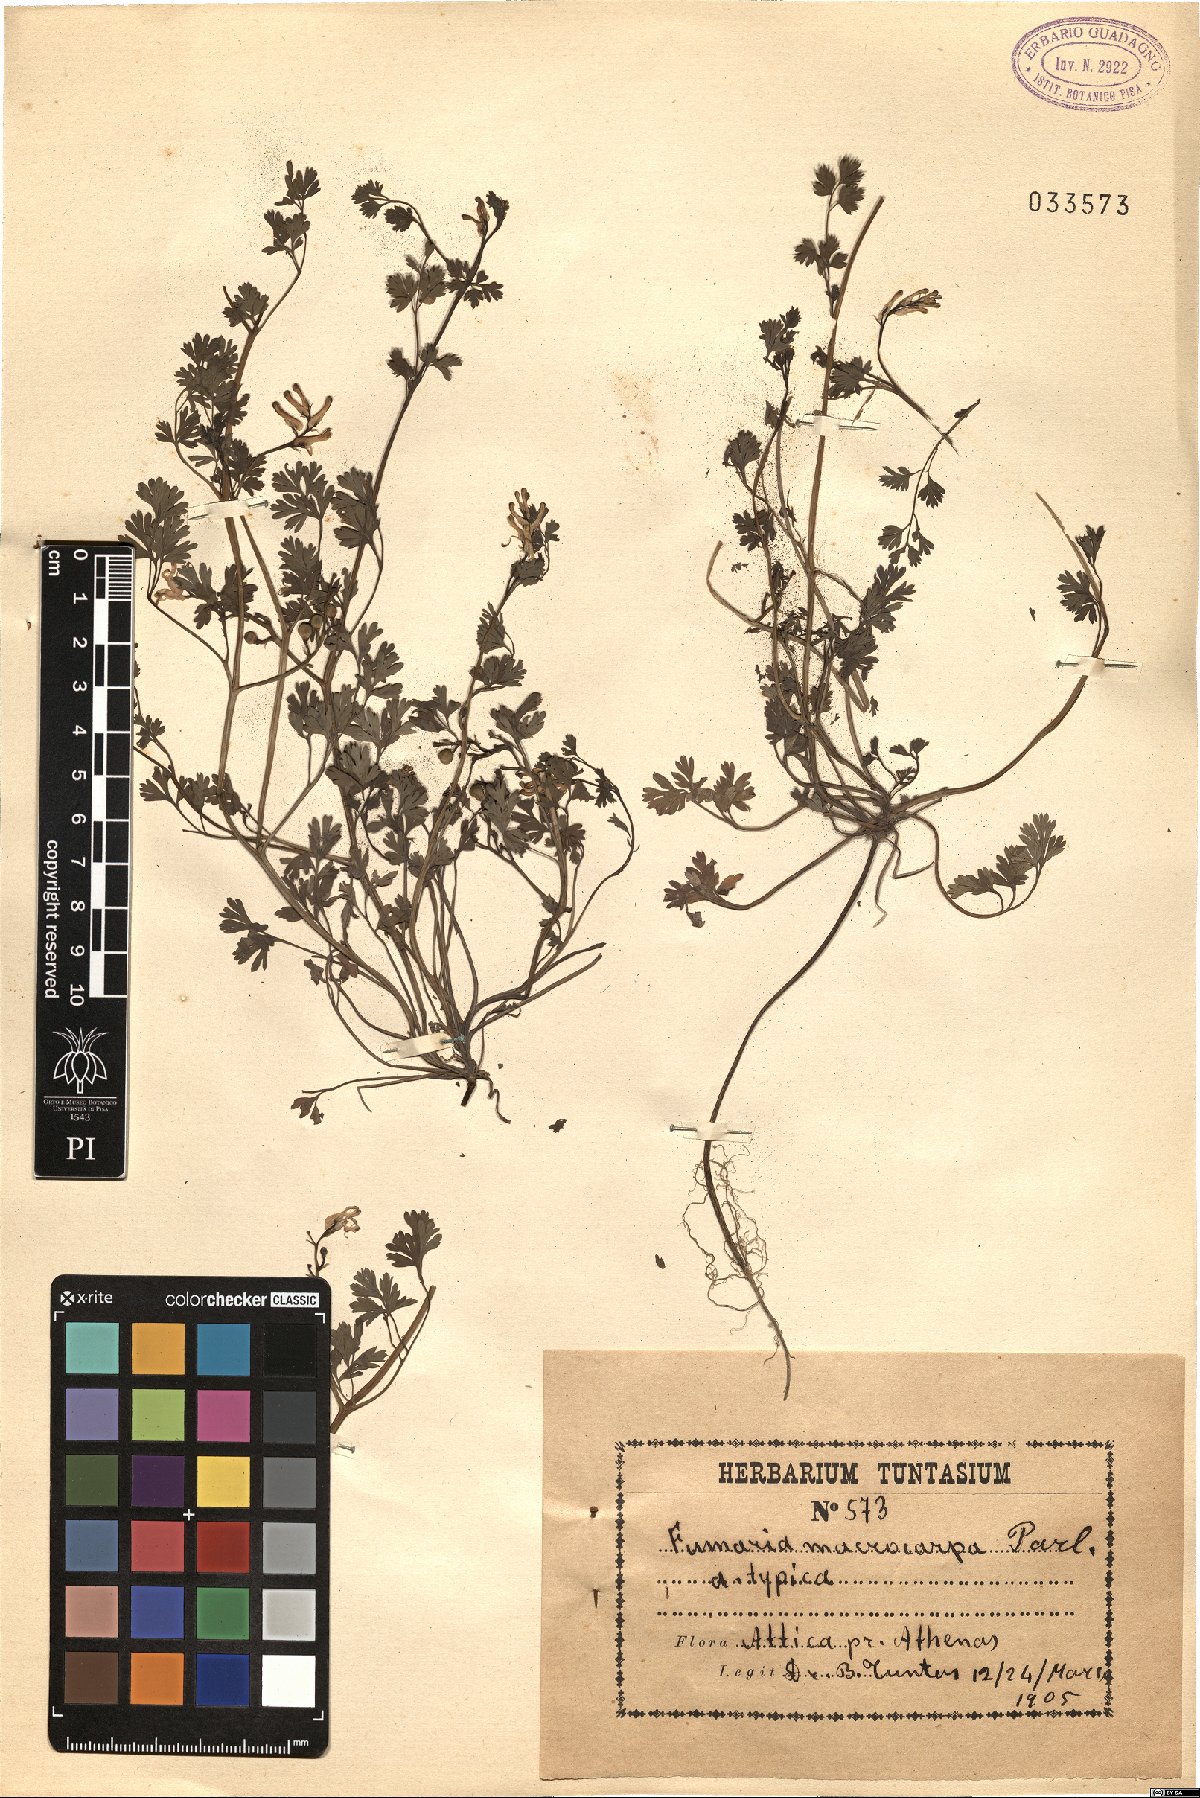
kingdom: Plantae
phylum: Tracheophyta
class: Magnoliopsida
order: Ranunculales
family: Papaveraceae
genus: Fumaria
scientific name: Fumaria macrocarpa
